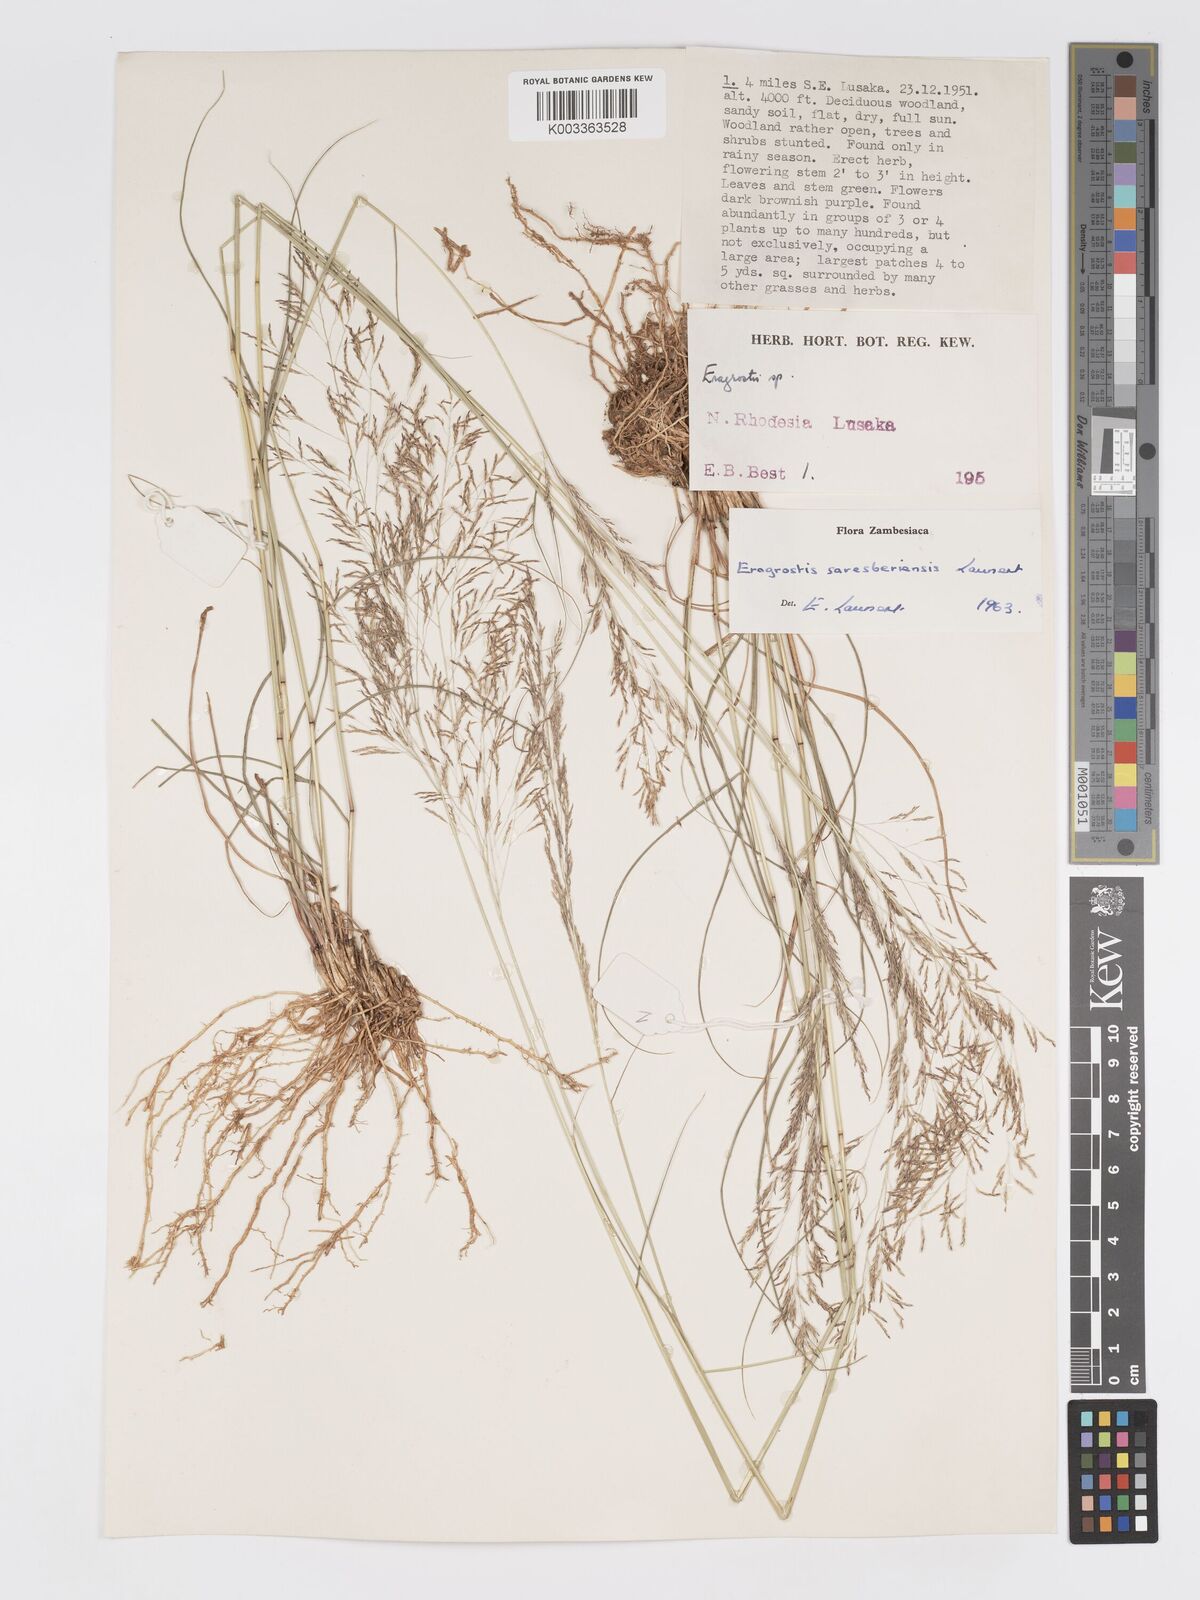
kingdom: Plantae
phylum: Tracheophyta
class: Liliopsida
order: Poales
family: Poaceae
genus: Eragrostis
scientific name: Eragrostis saresberiensis
